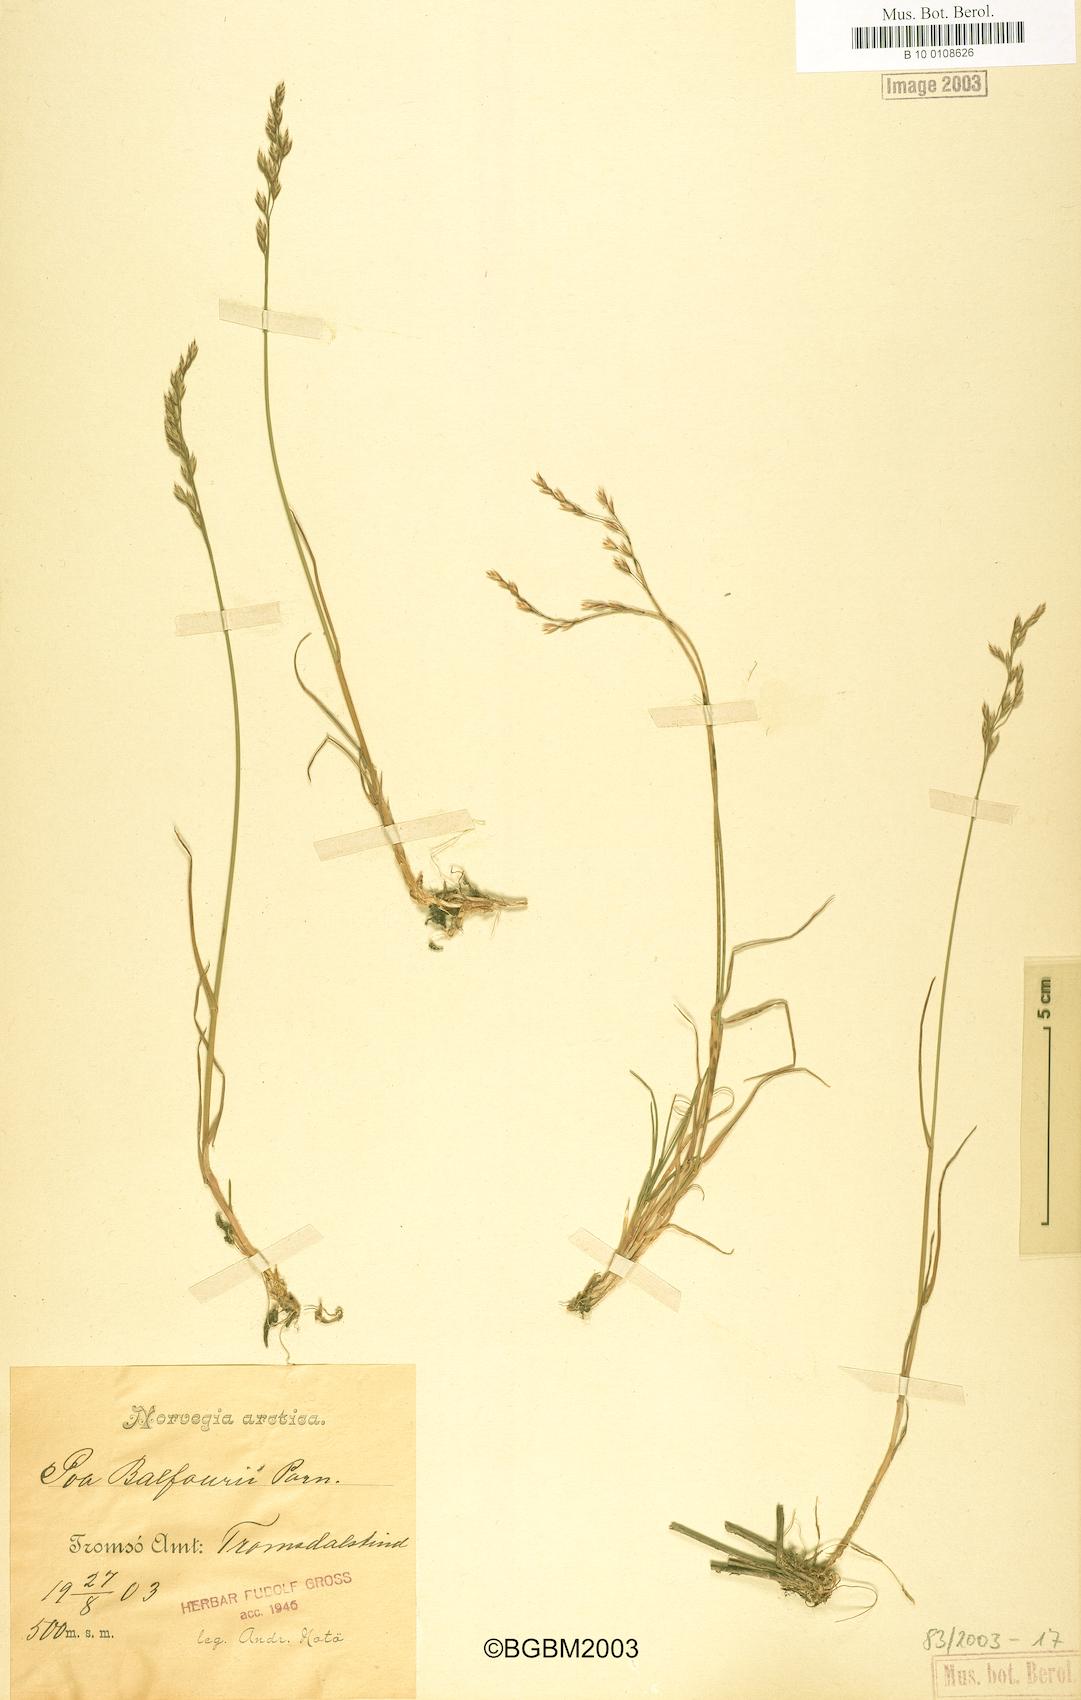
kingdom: Plantae
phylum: Tracheophyta
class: Liliopsida
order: Poales
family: Poaceae
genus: Poa
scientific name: Poa glauca
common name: Glaucous bluegrass
